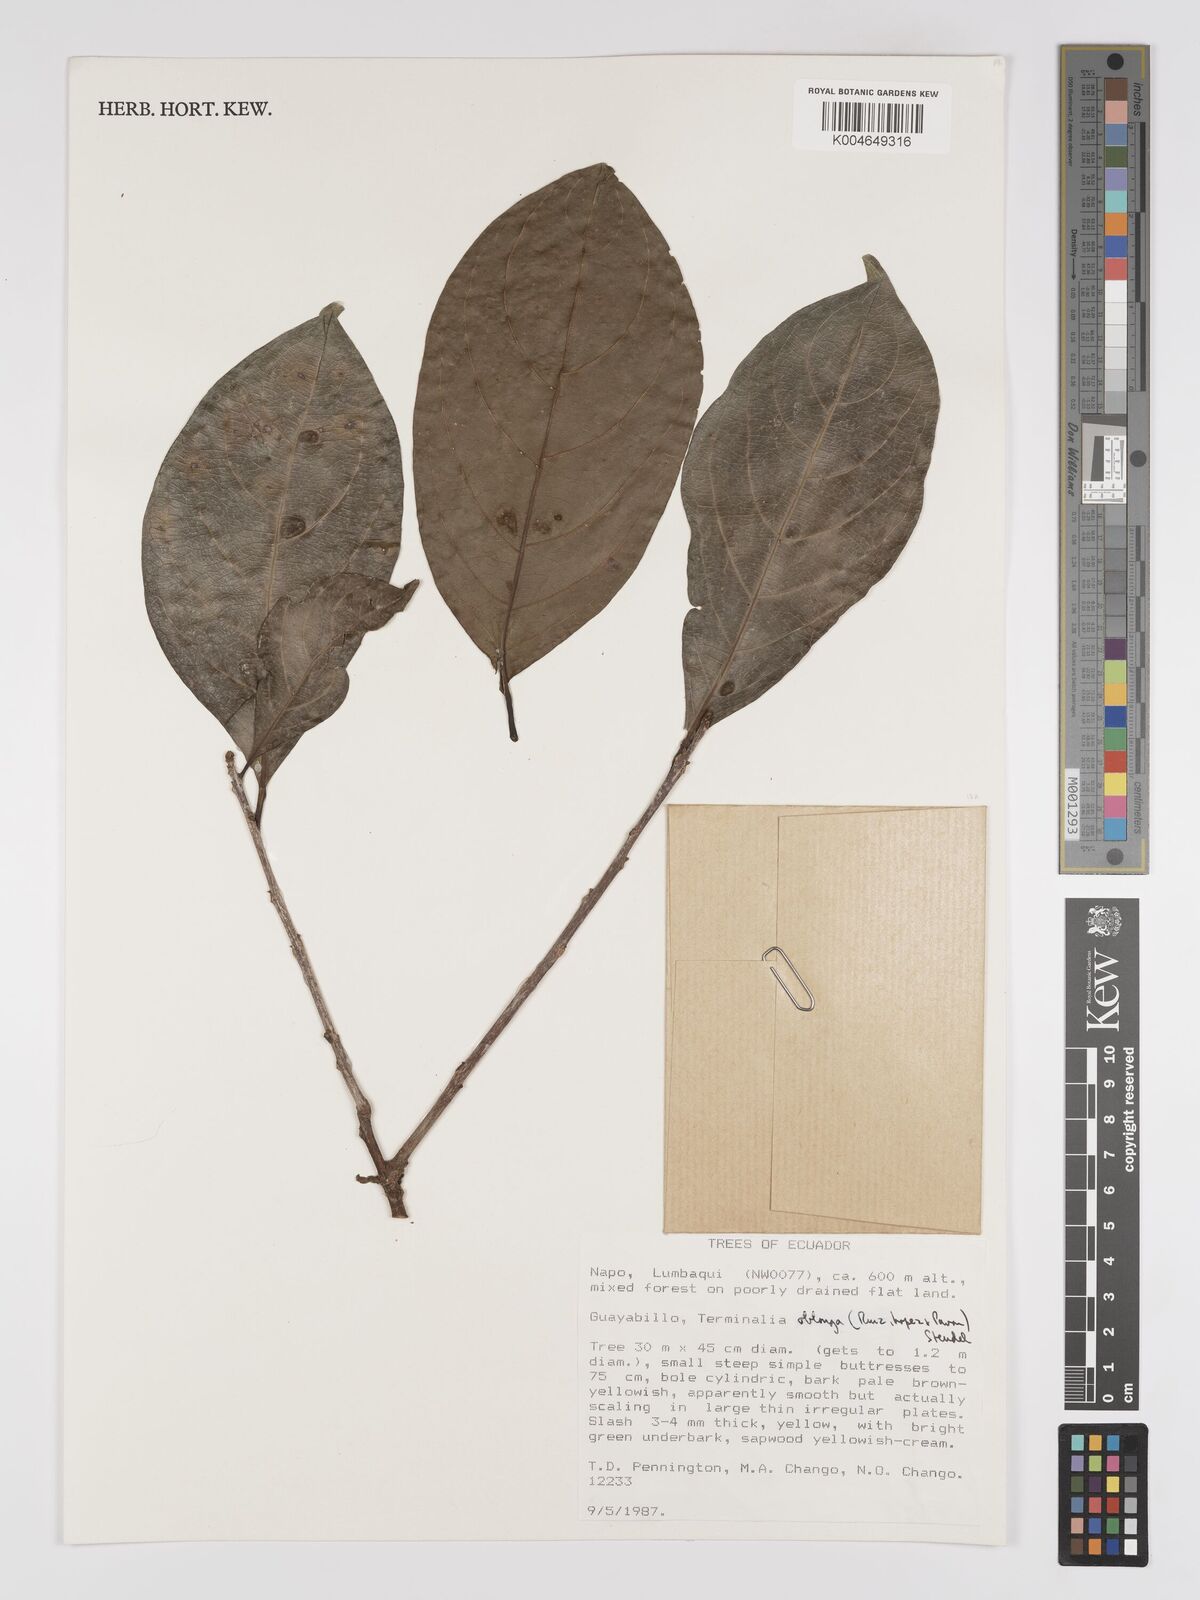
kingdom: Plantae
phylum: Tracheophyta
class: Magnoliopsida
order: Myrtales
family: Combretaceae
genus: Terminalia
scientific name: Terminalia oblonga
